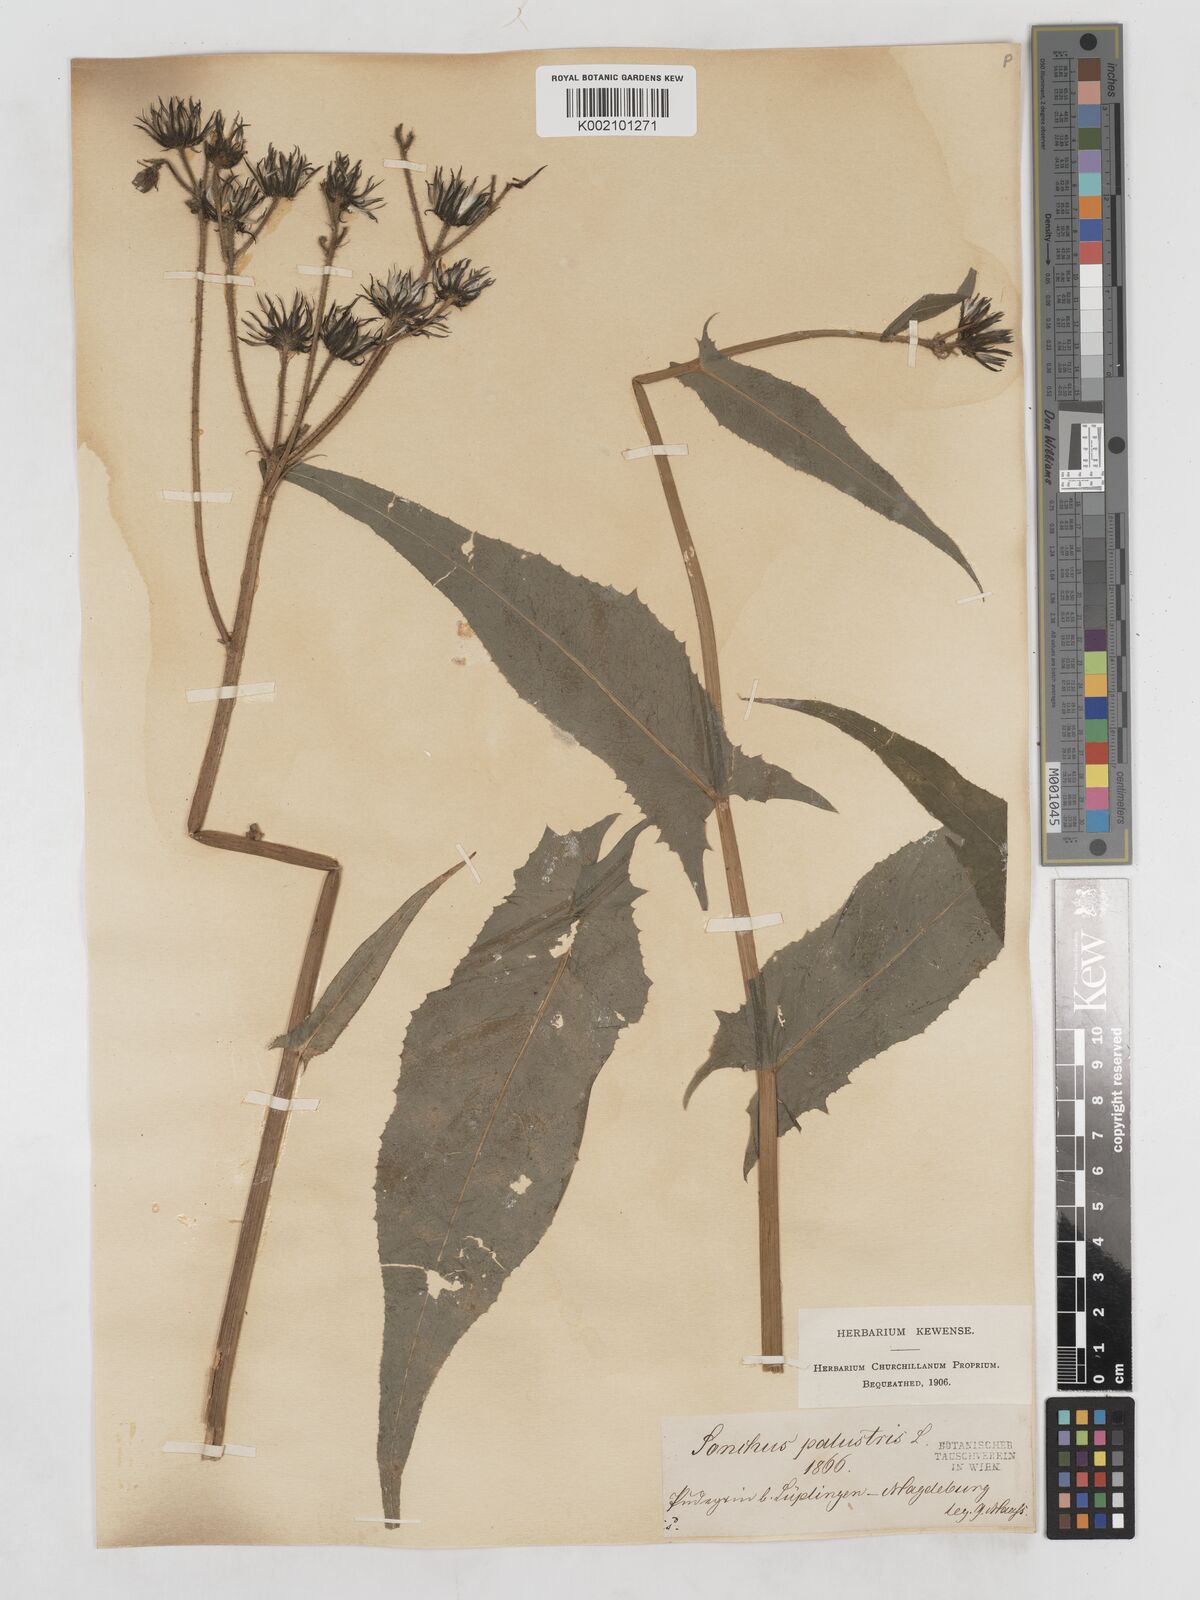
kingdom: Plantae
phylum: Tracheophyta
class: Magnoliopsida
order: Asterales
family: Asteraceae
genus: Sonchus
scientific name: Sonchus palustris
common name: Marsh sow-thistle
